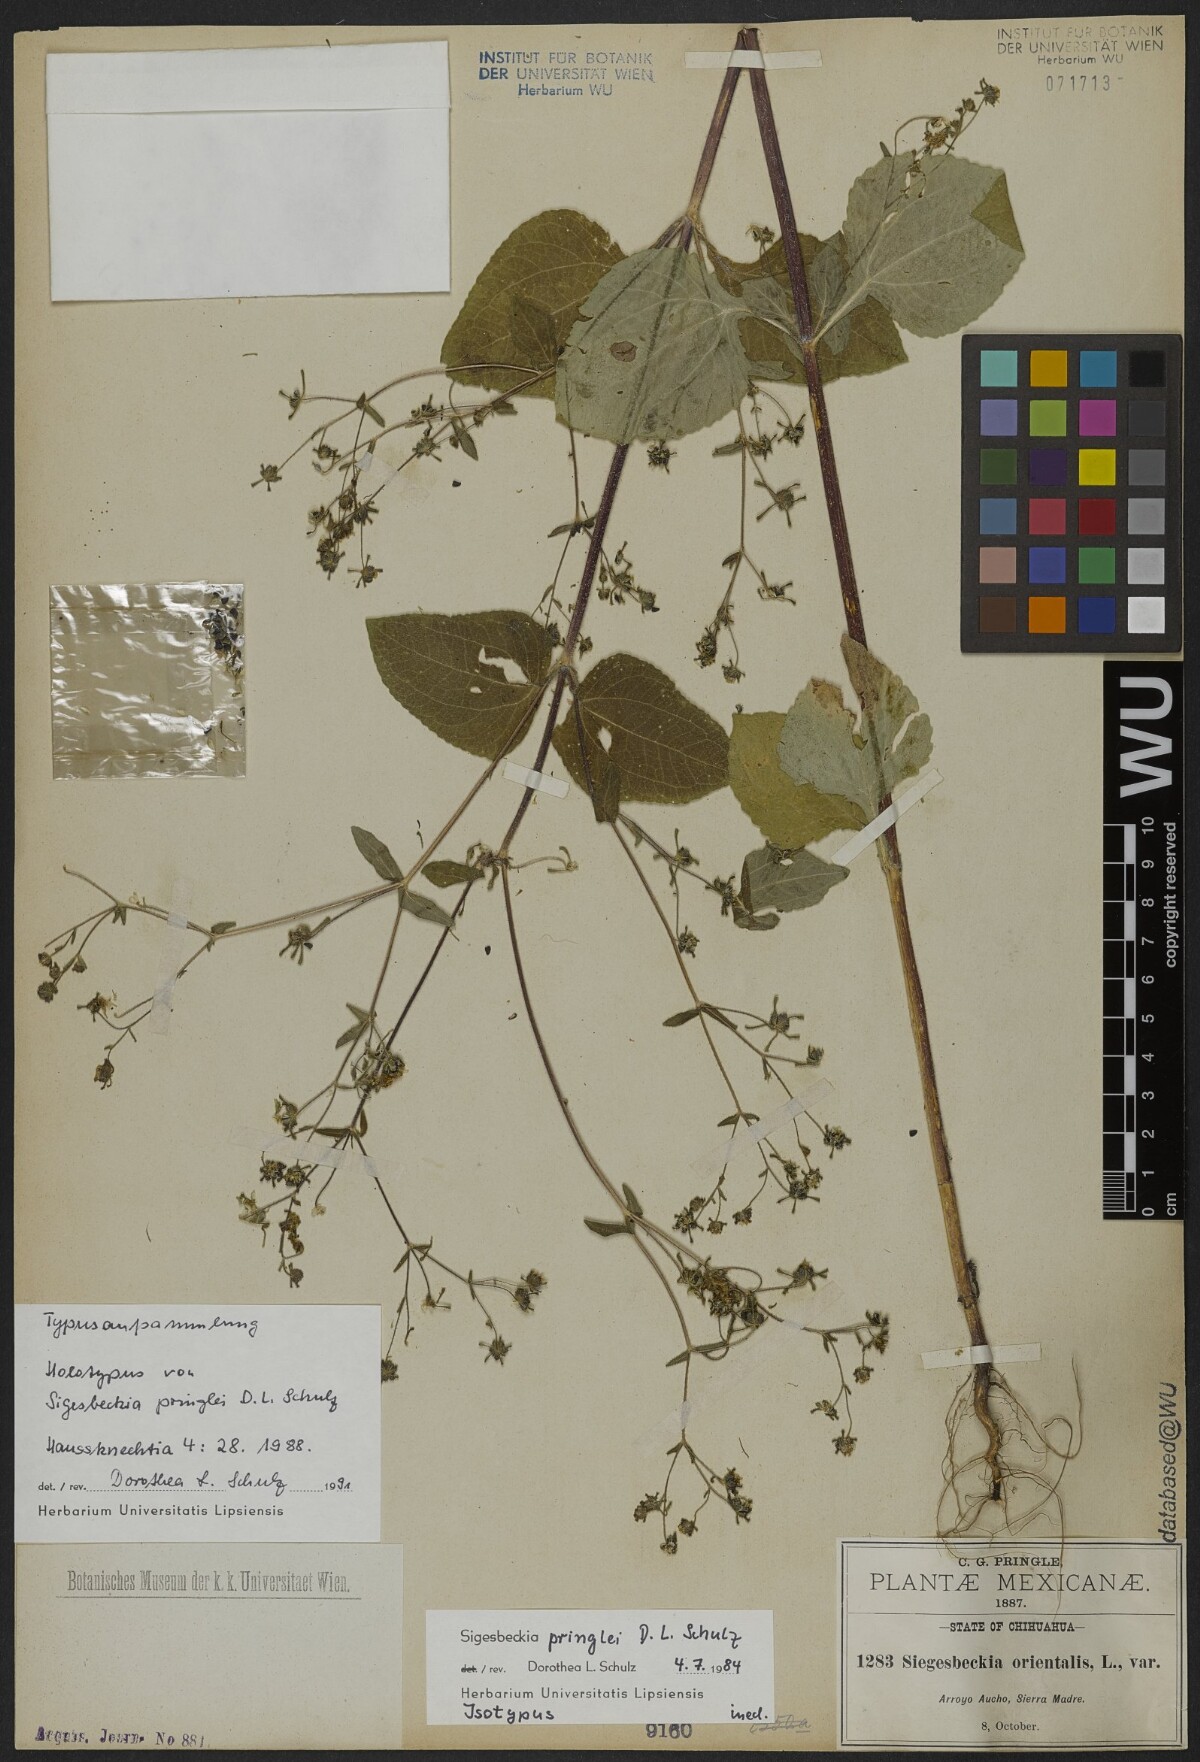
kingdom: Plantae
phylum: Tracheophyta
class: Magnoliopsida
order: Asterales
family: Asteraceae
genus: Sigesbeckia
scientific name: Sigesbeckia pringlei
